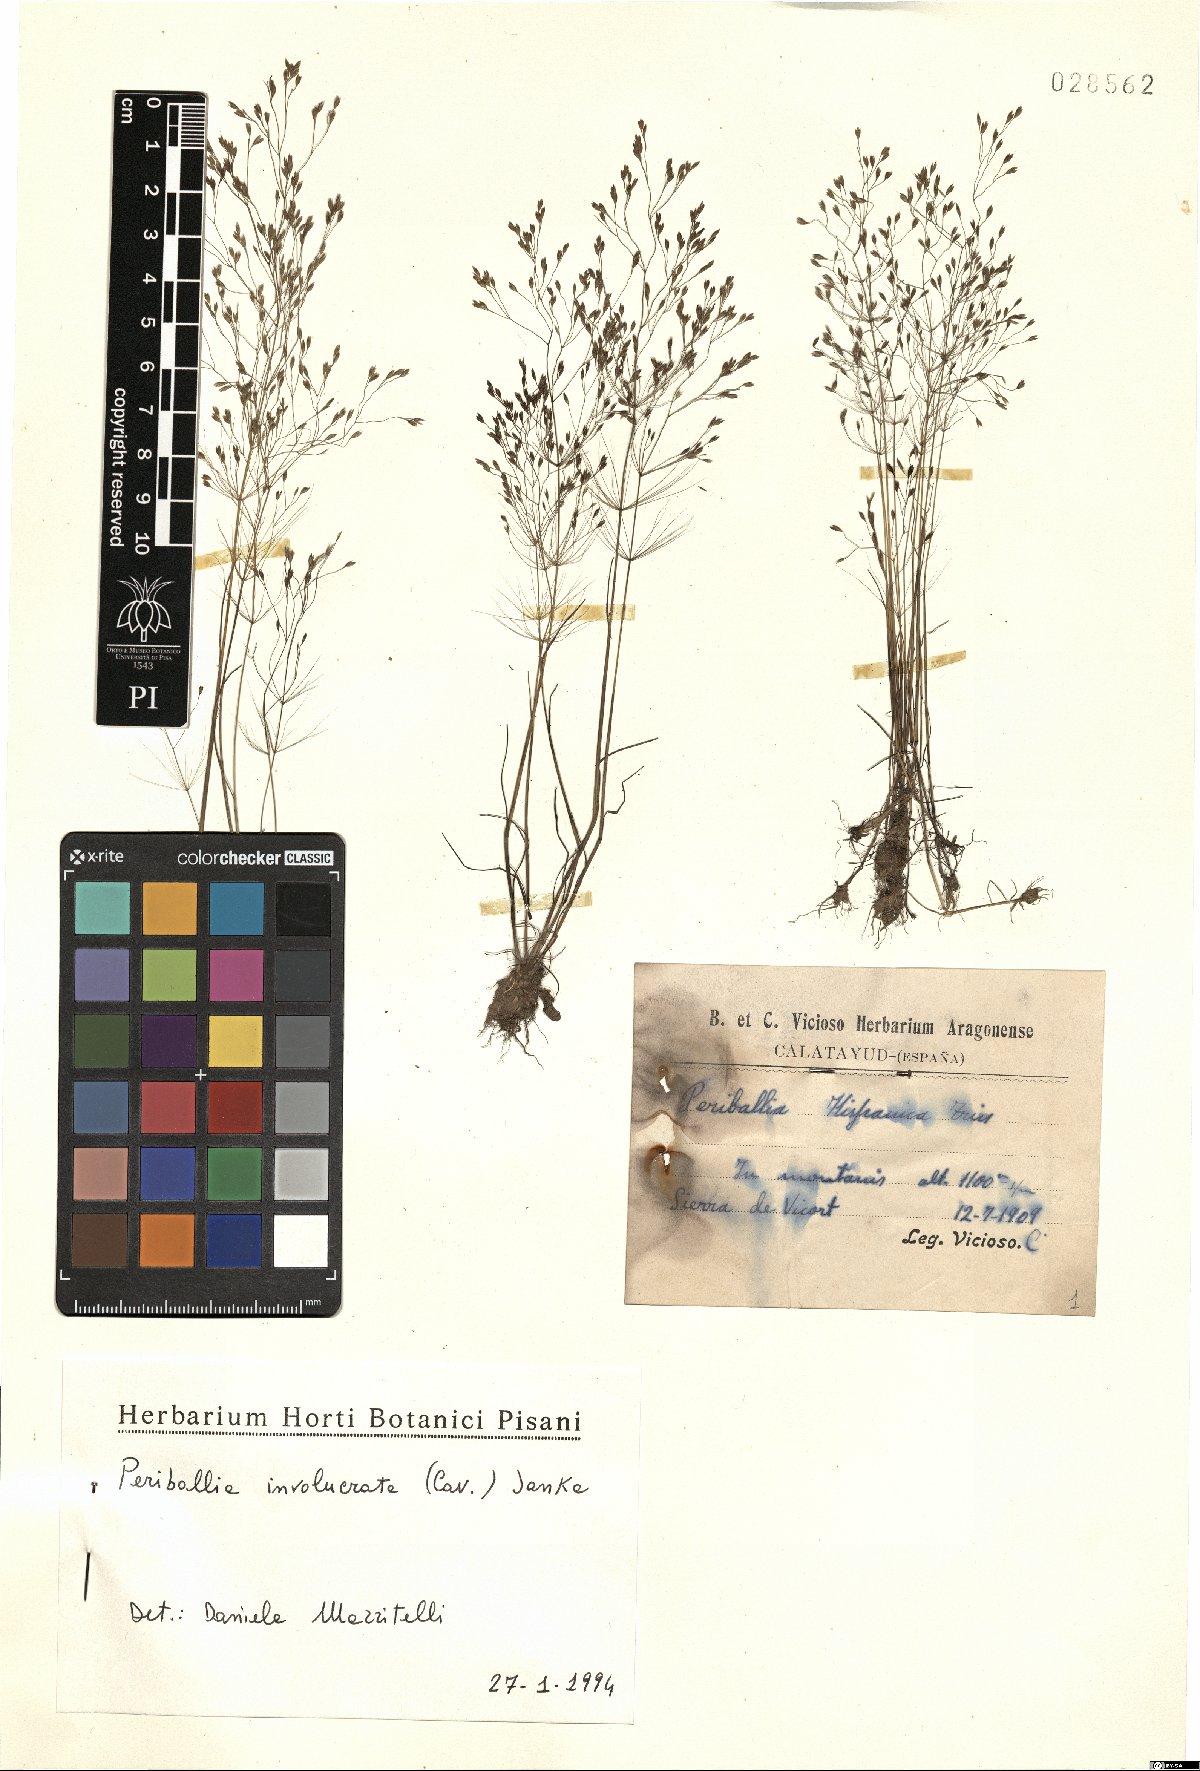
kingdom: Plantae
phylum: Tracheophyta
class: Liliopsida
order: Poales
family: Poaceae
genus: Periballia
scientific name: Periballia involucrata
